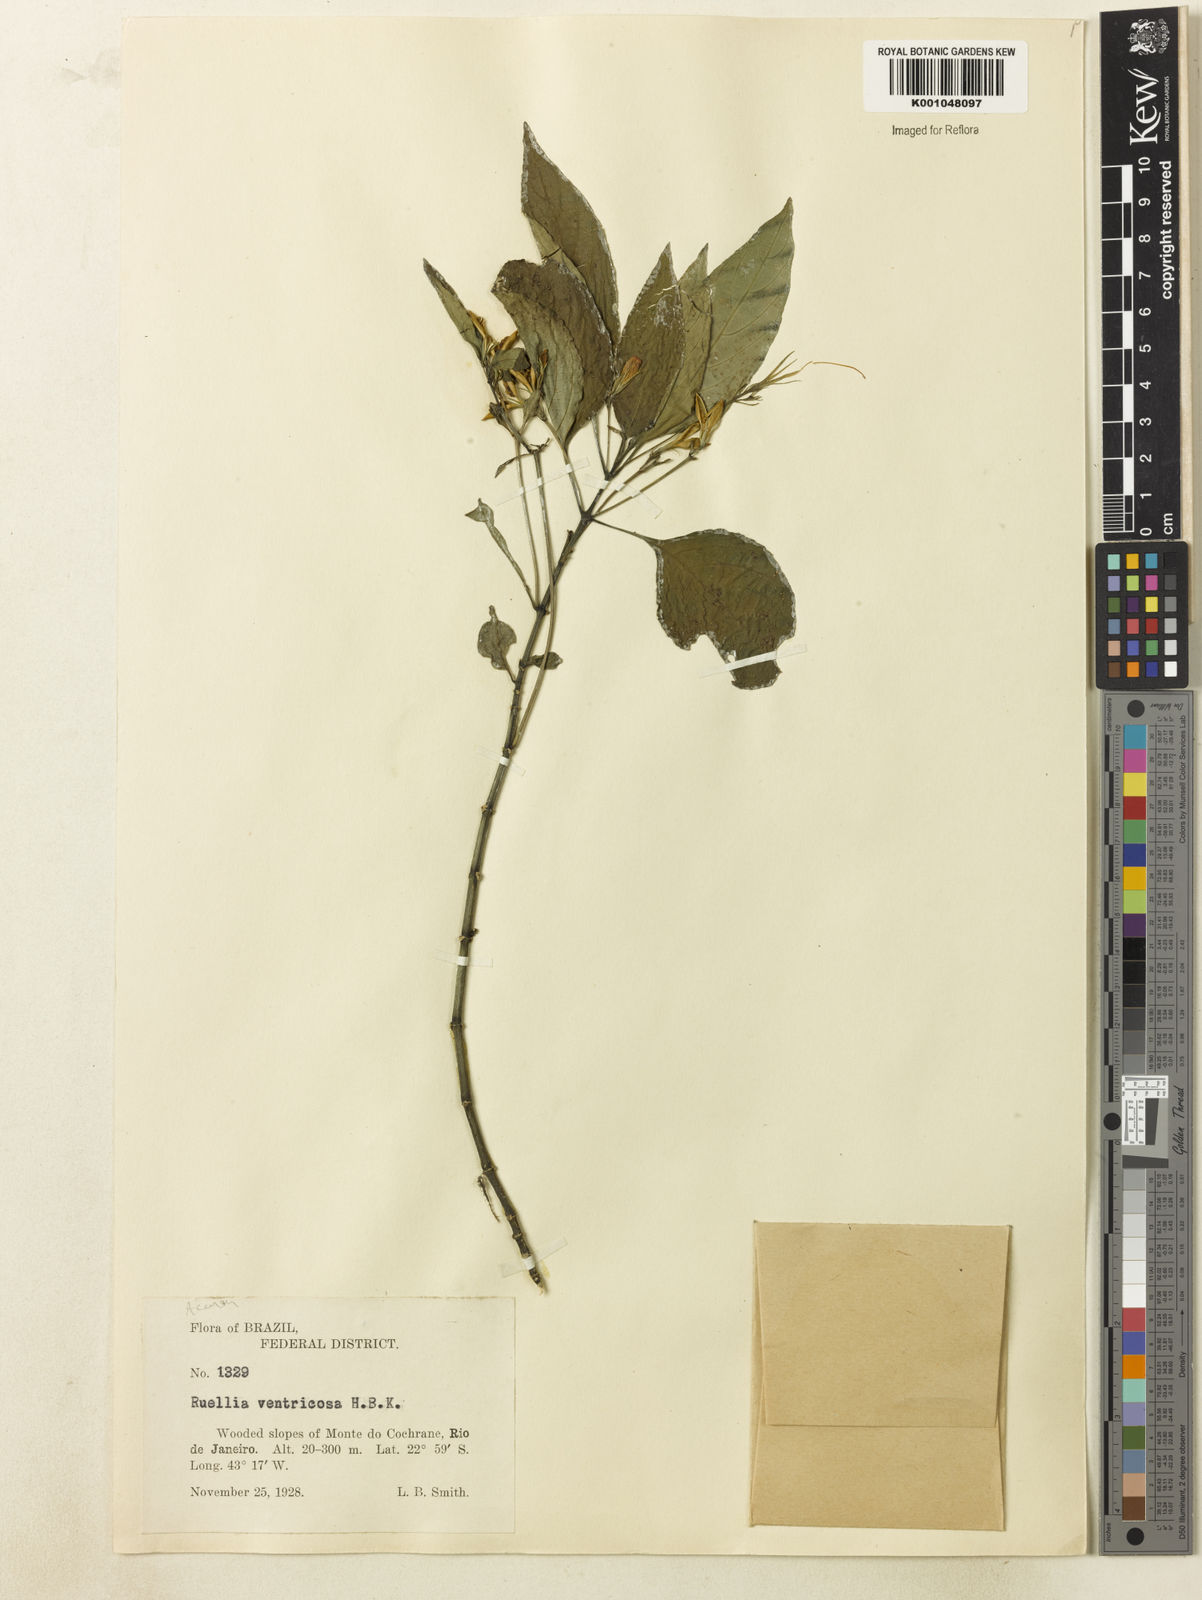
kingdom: Plantae
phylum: Tracheophyta
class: Magnoliopsida
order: Lamiales
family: Acanthaceae
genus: Ruellia
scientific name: Ruellia brevifolia
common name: Tropical wild petunia
